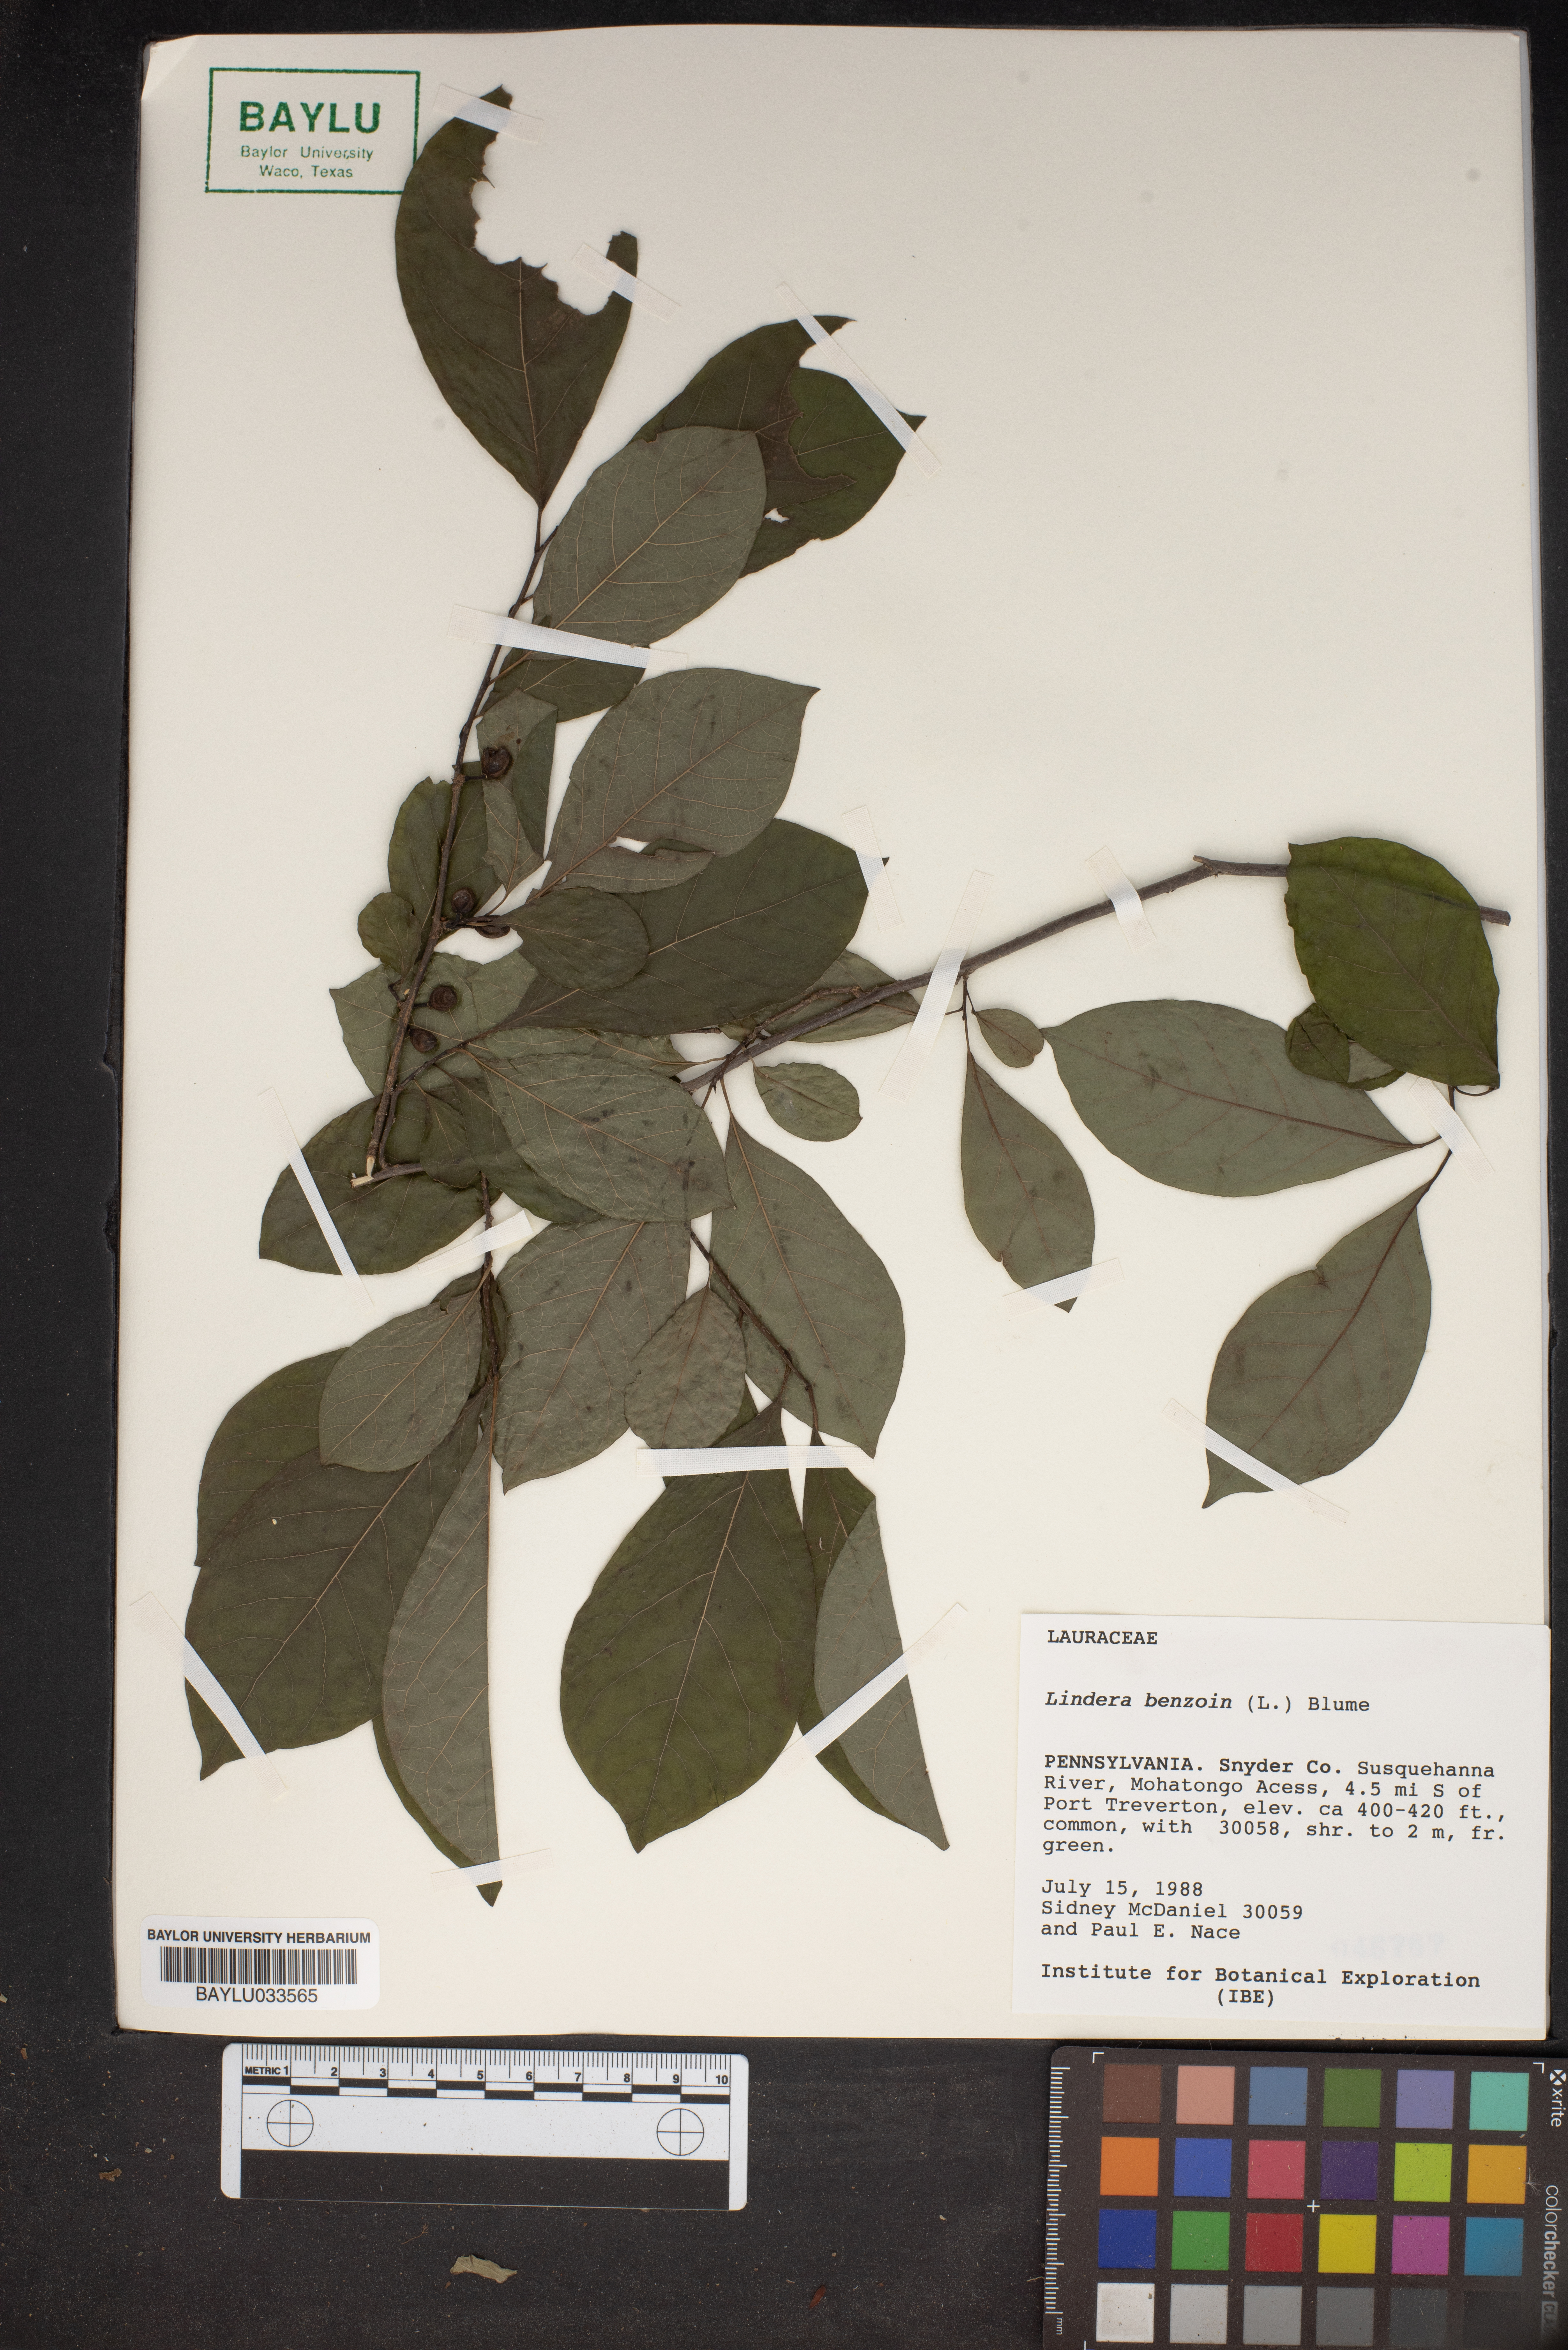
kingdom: Plantae
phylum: Tracheophyta
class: Magnoliopsida
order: Laurales
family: Lauraceae
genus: Lindera
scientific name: Lindera benzoin
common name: Spicebush
